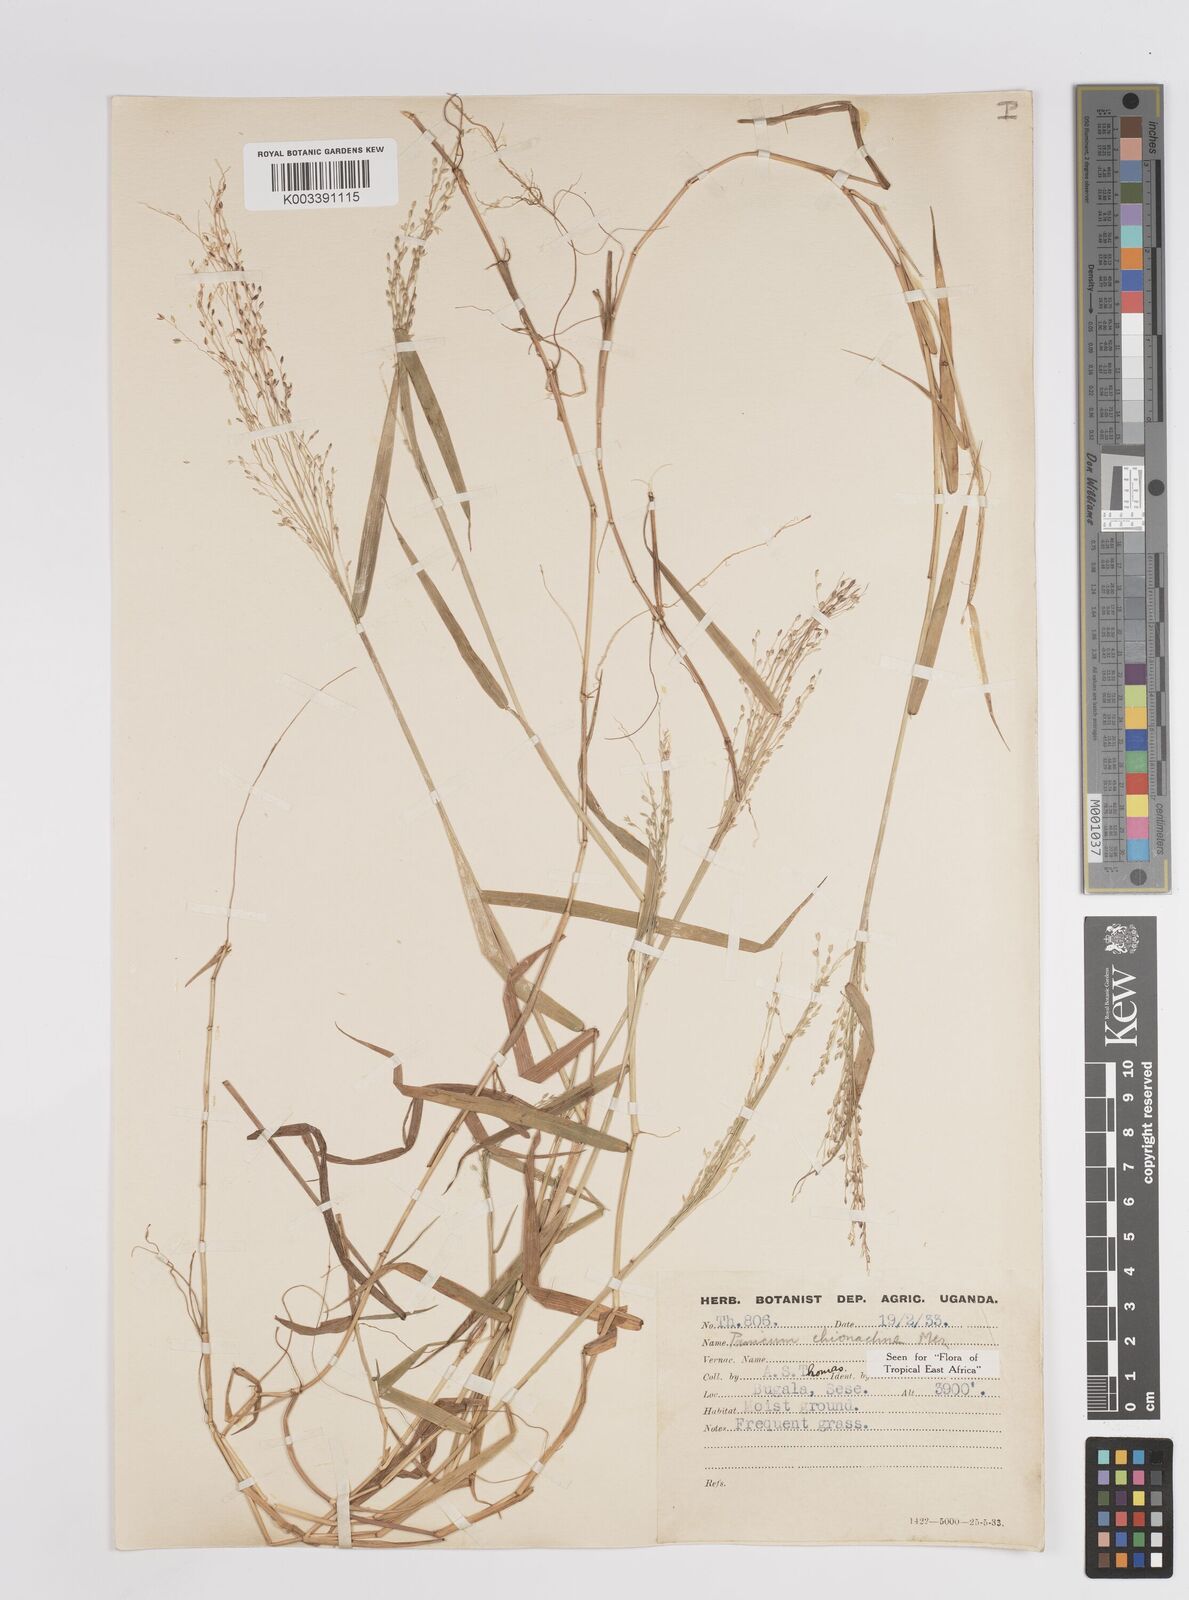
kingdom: Plantae
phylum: Tracheophyta
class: Liliopsida
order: Poales
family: Poaceae
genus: Panicum
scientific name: Panicum chionachne
